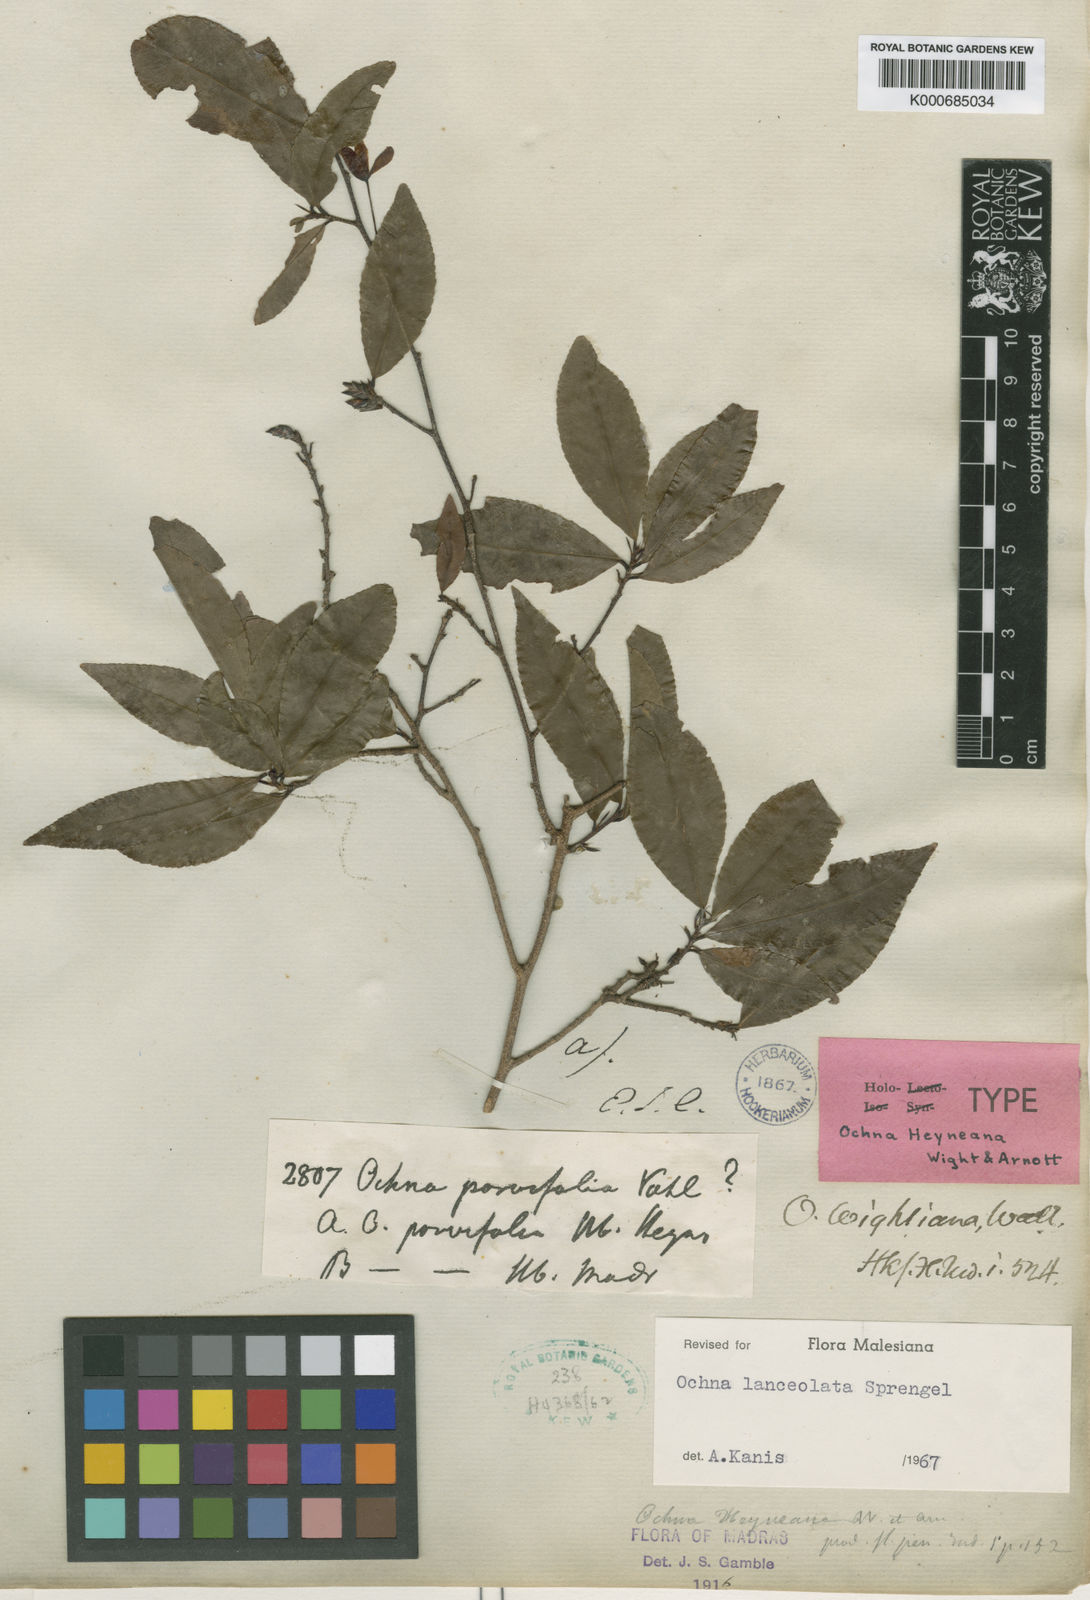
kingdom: Plantae
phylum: Tracheophyta
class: Magnoliopsida
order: Malpighiales
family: Ochnaceae
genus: Ochna
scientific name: Ochna lanceolata
